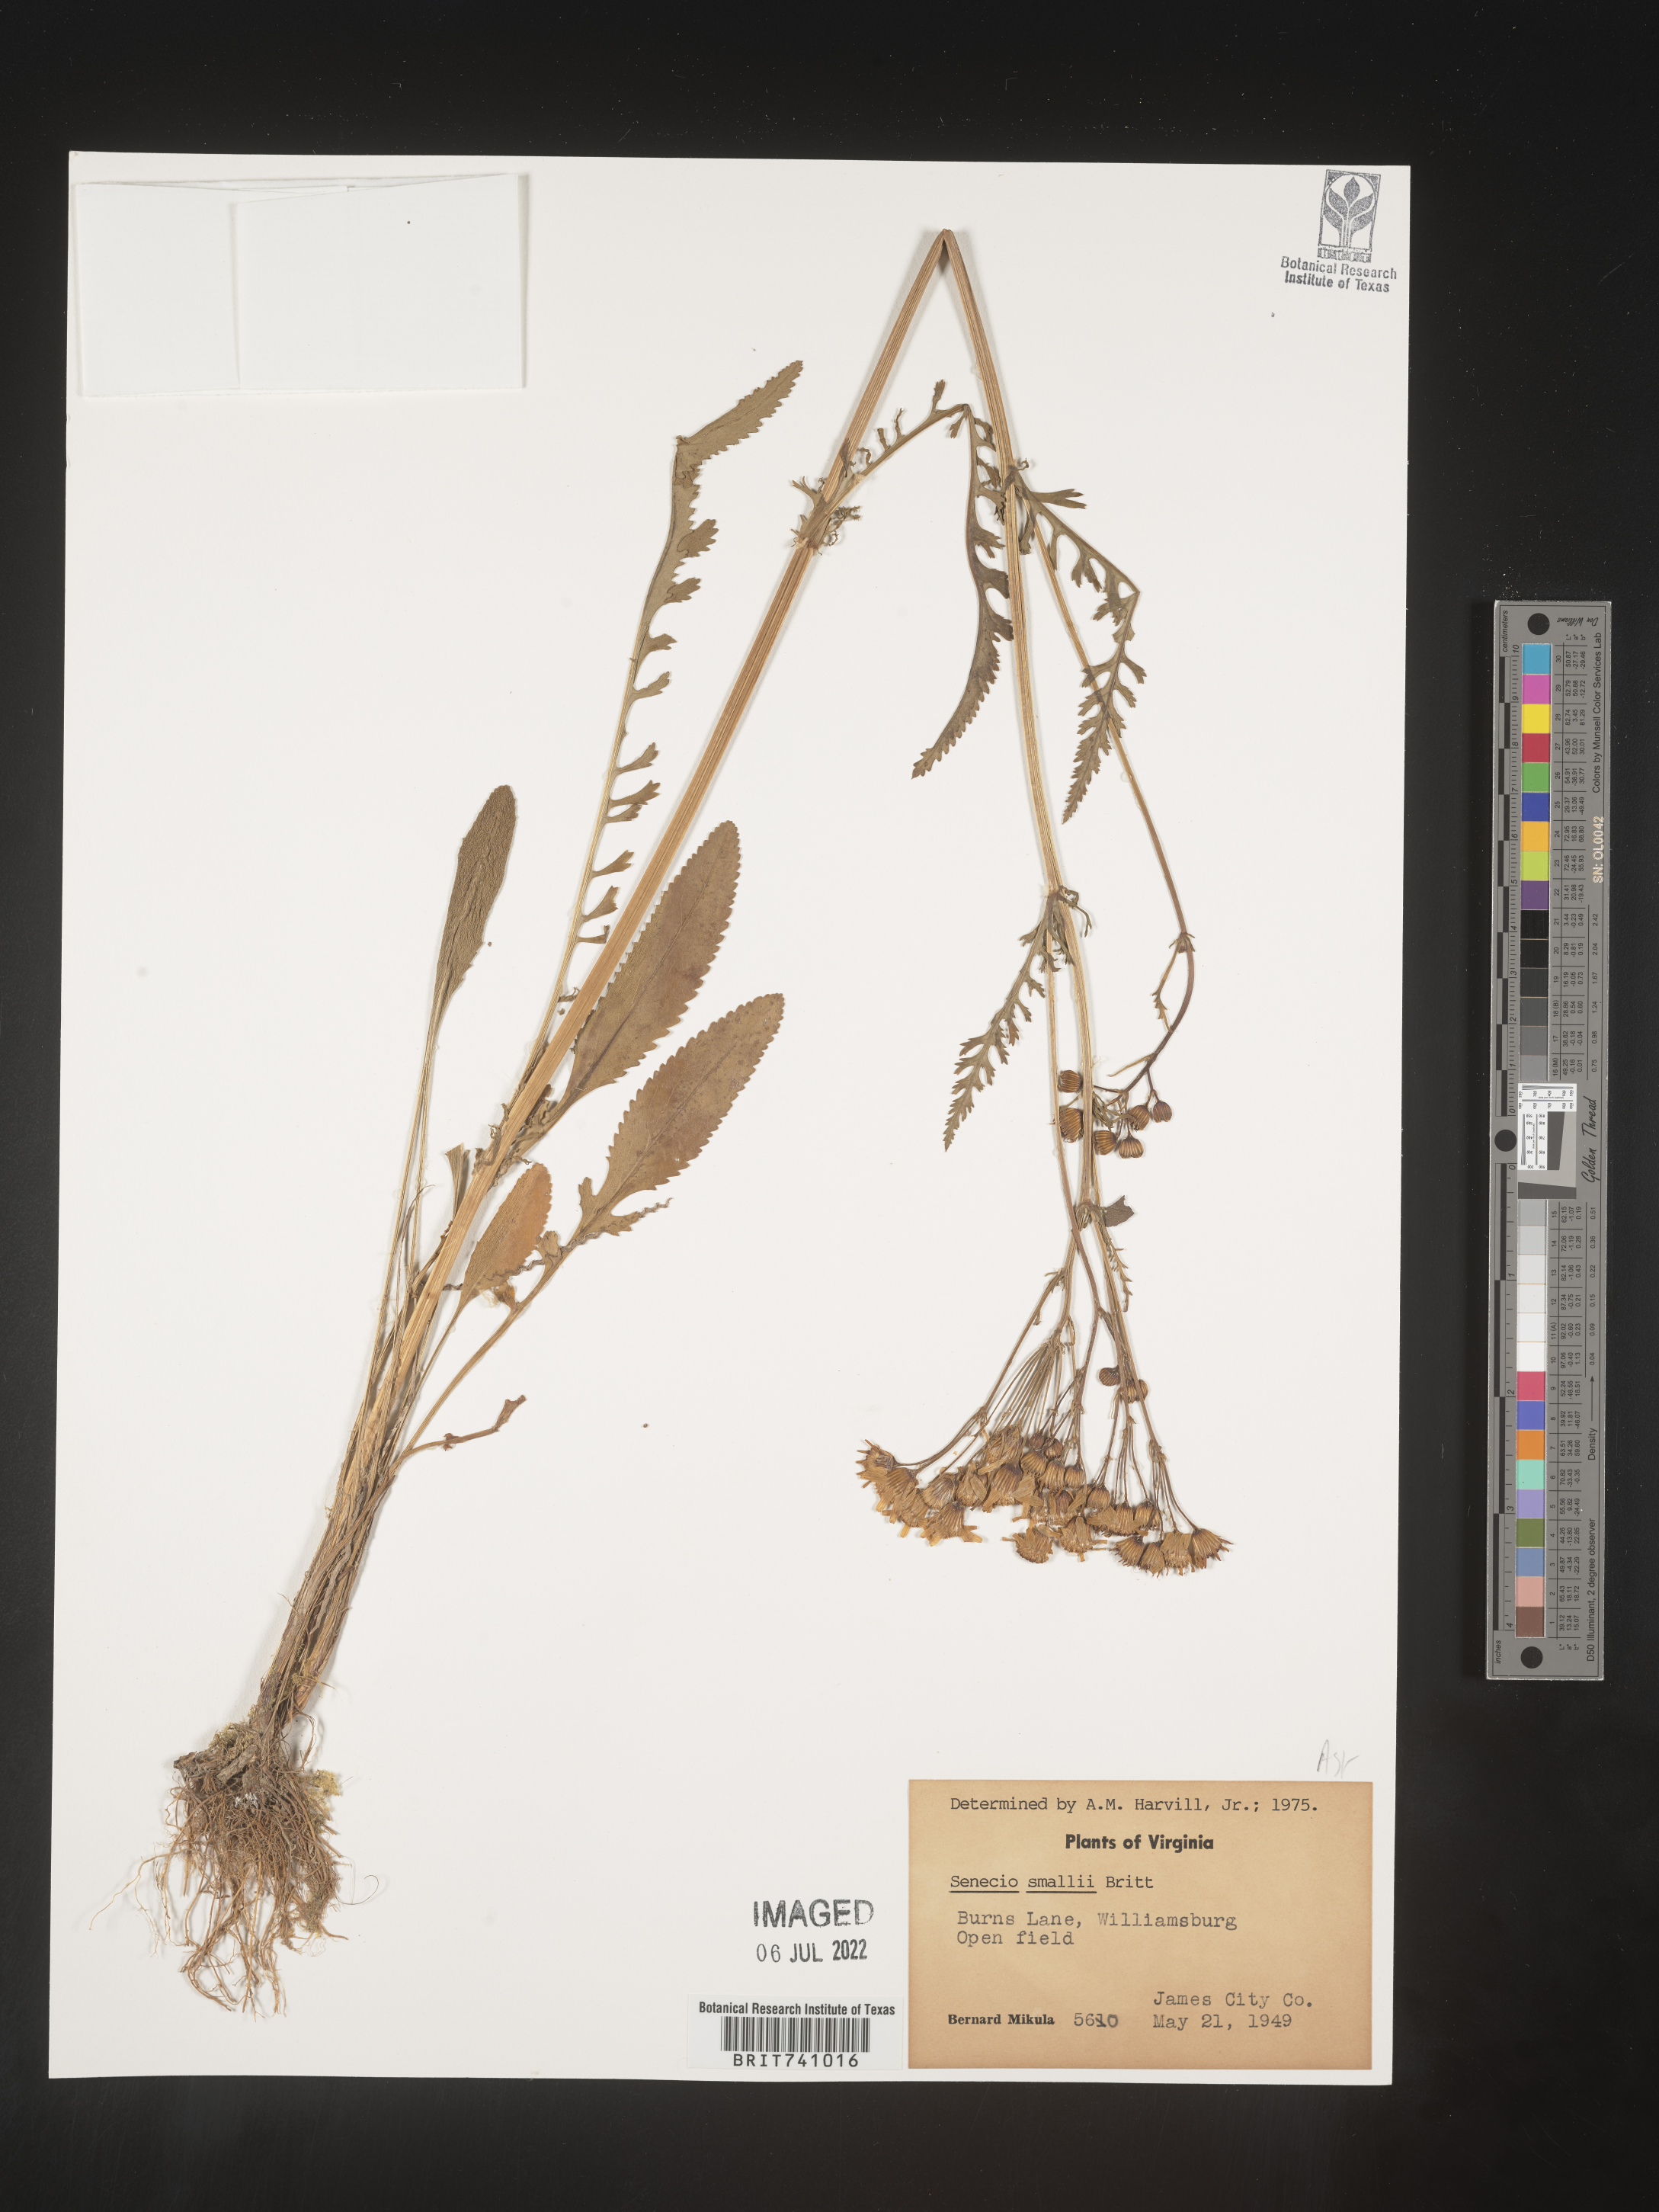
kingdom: Plantae
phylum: Tracheophyta
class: Magnoliopsida
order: Asterales
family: Asteraceae
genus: Packera
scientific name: Packera anonyma
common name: Small ragwort
